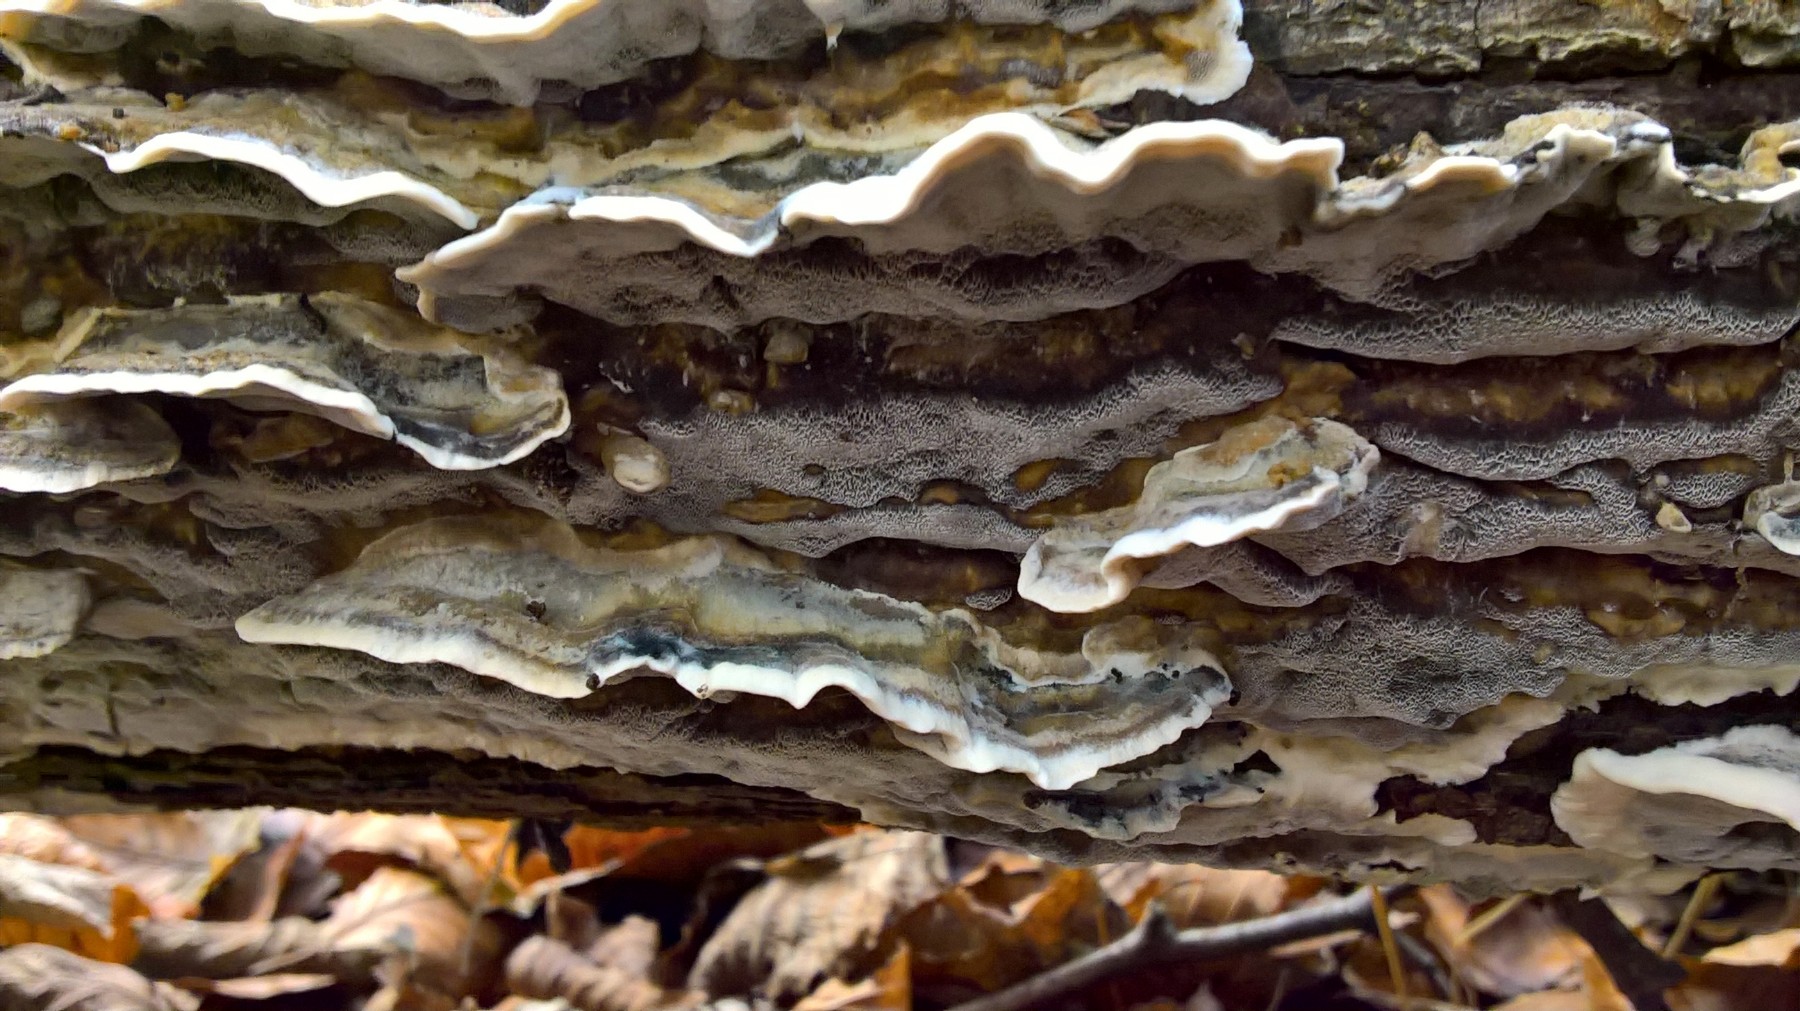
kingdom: Fungi
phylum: Basidiomycota
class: Agaricomycetes
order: Polyporales
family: Phanerochaetaceae
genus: Bjerkandera
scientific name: Bjerkandera adusta
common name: sveden sodporesvamp
